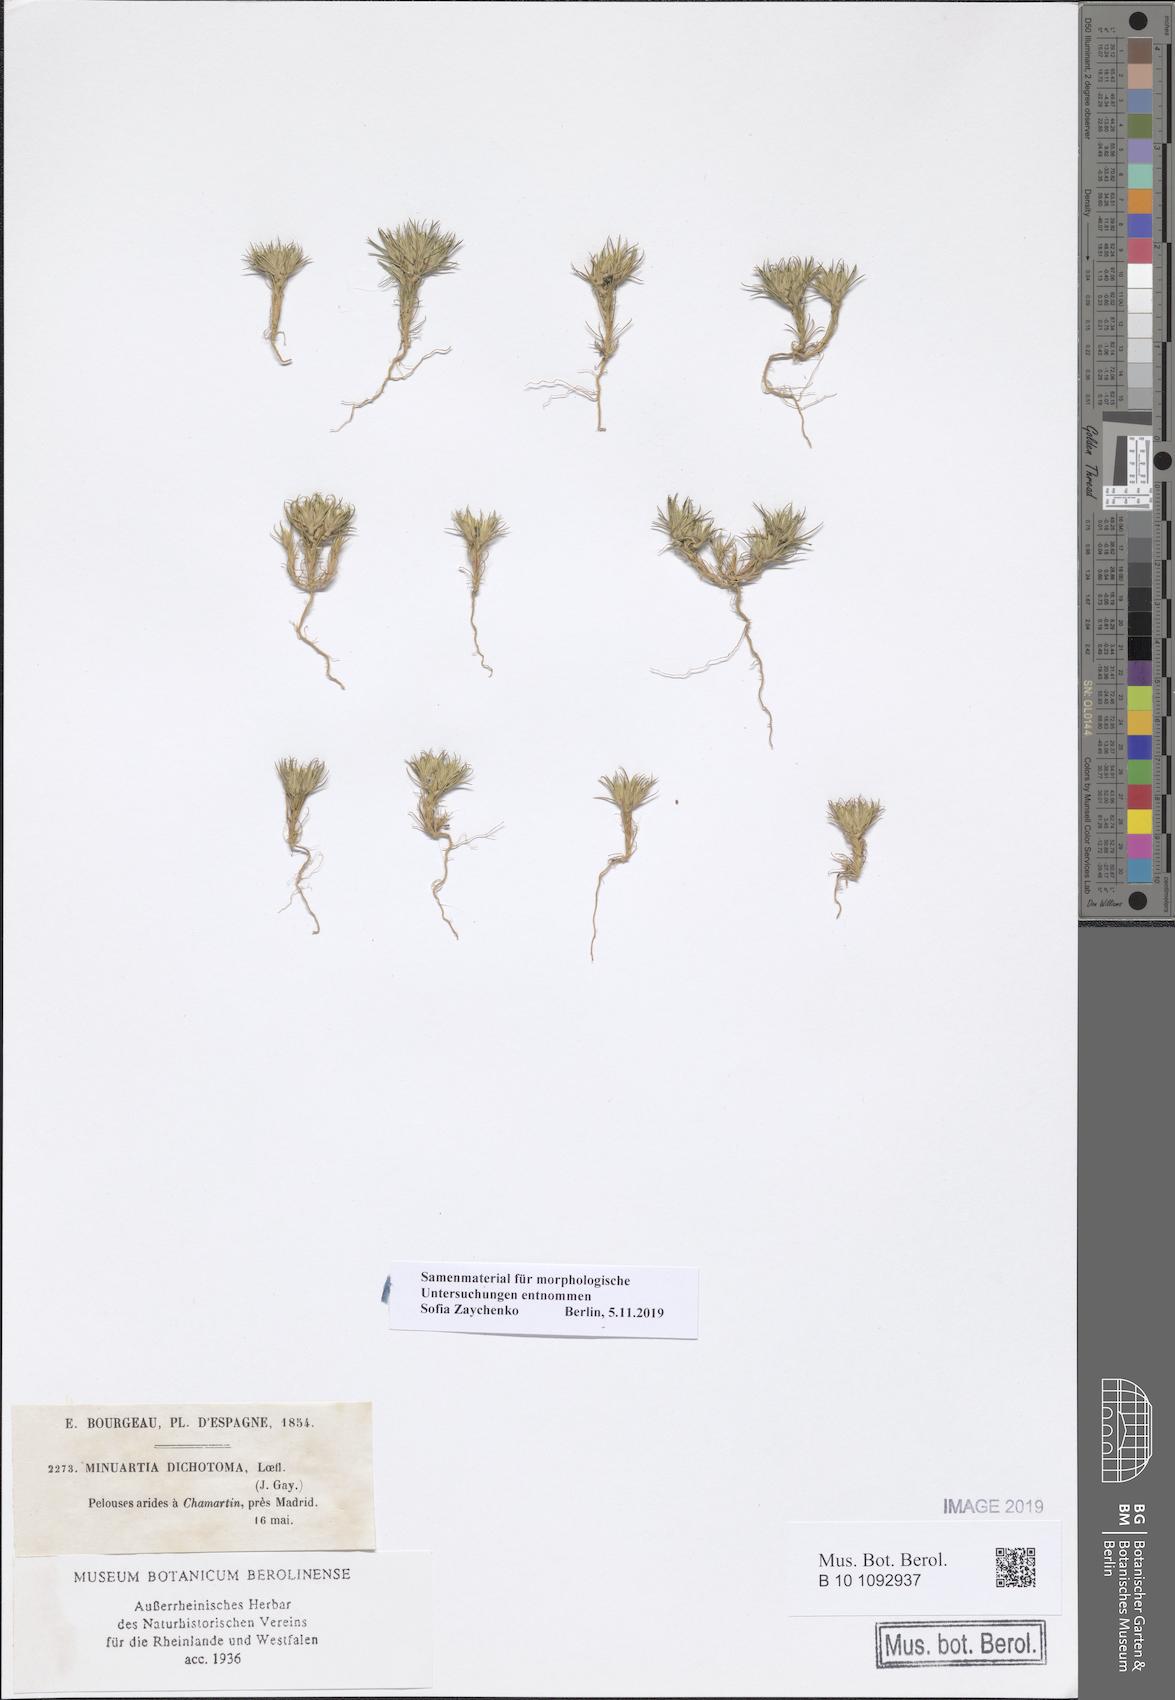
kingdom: Plantae
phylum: Tracheophyta
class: Magnoliopsida
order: Caryophyllales
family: Caryophyllaceae
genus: Minuartia
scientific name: Minuartia dichotoma
